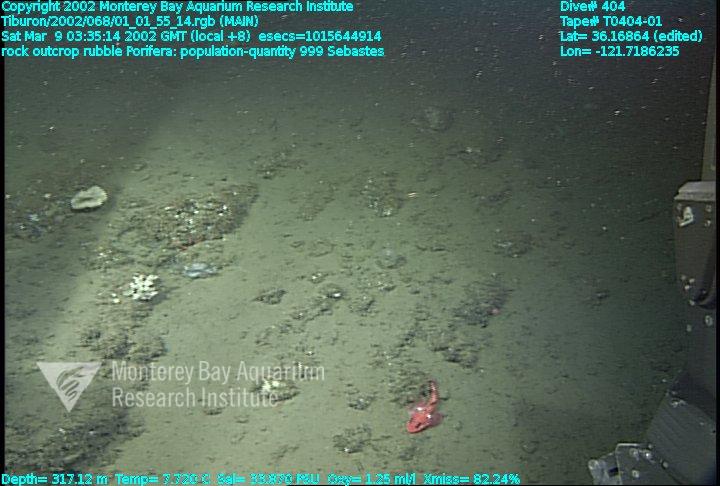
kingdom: Animalia
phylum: Porifera
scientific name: Porifera
